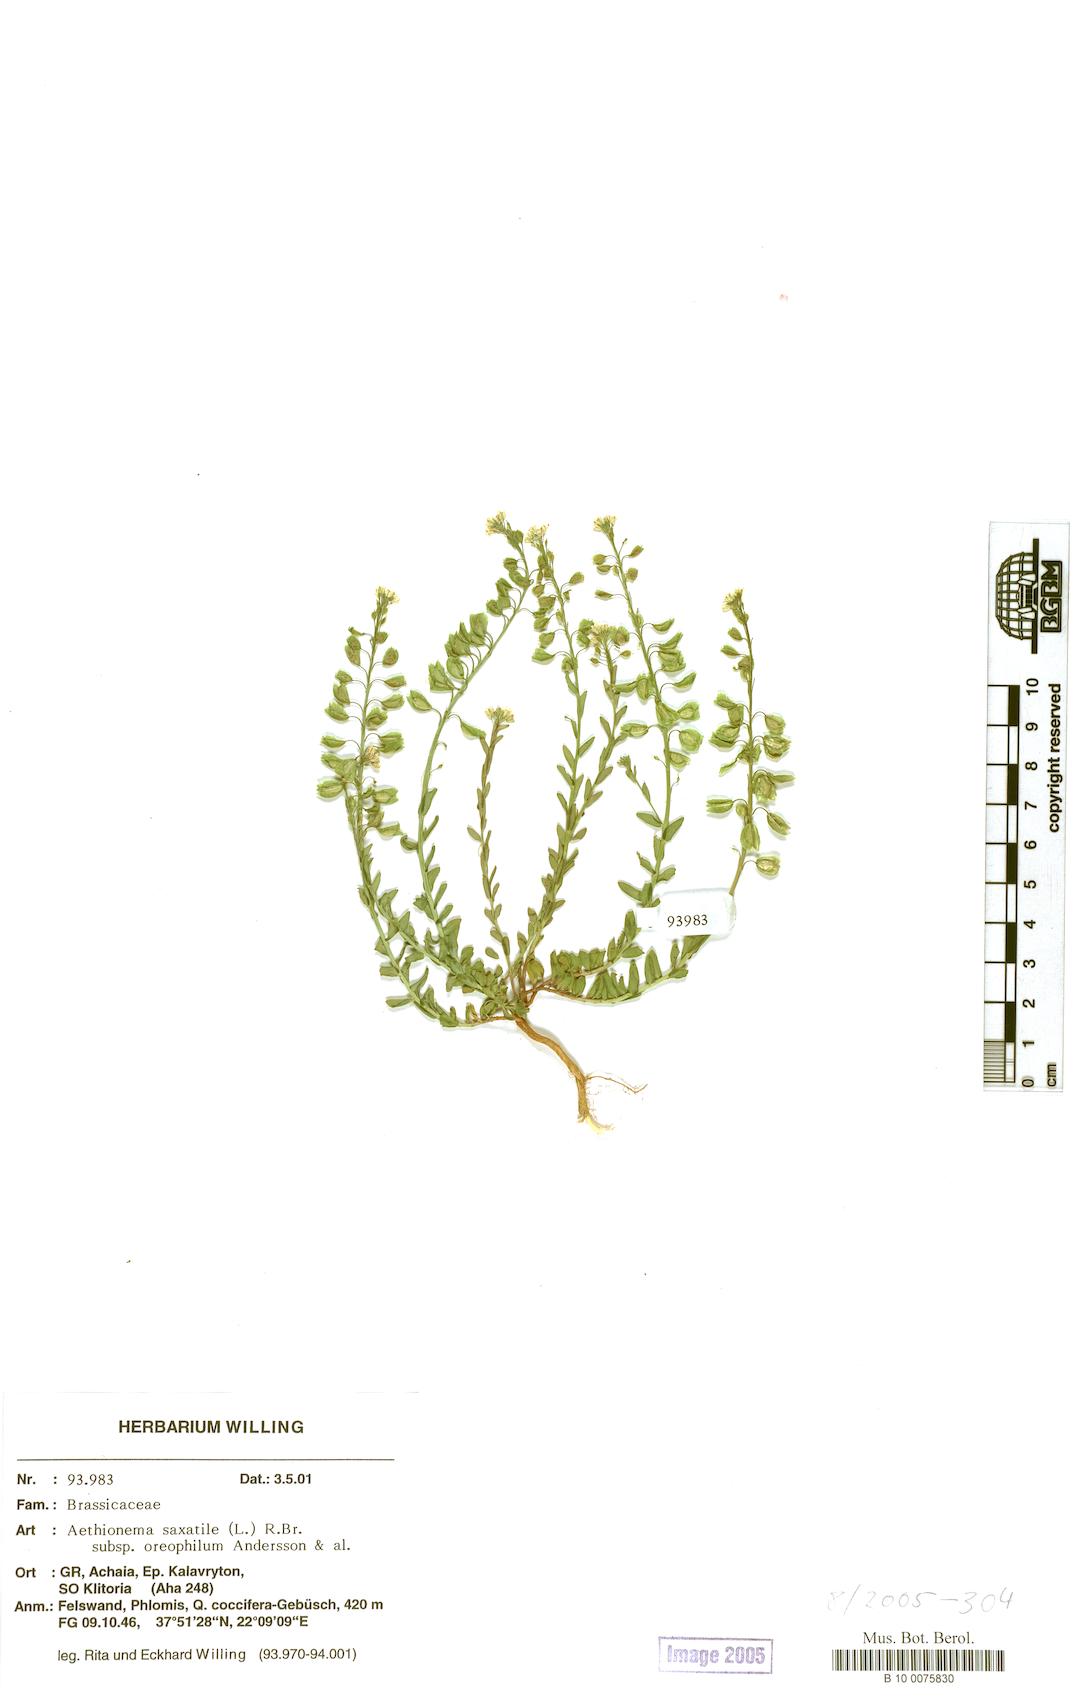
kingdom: Plantae
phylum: Tracheophyta
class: Magnoliopsida
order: Brassicales
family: Brassicaceae
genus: Aethionema
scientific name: Aethionema saxatile
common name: Burnt candytuft
